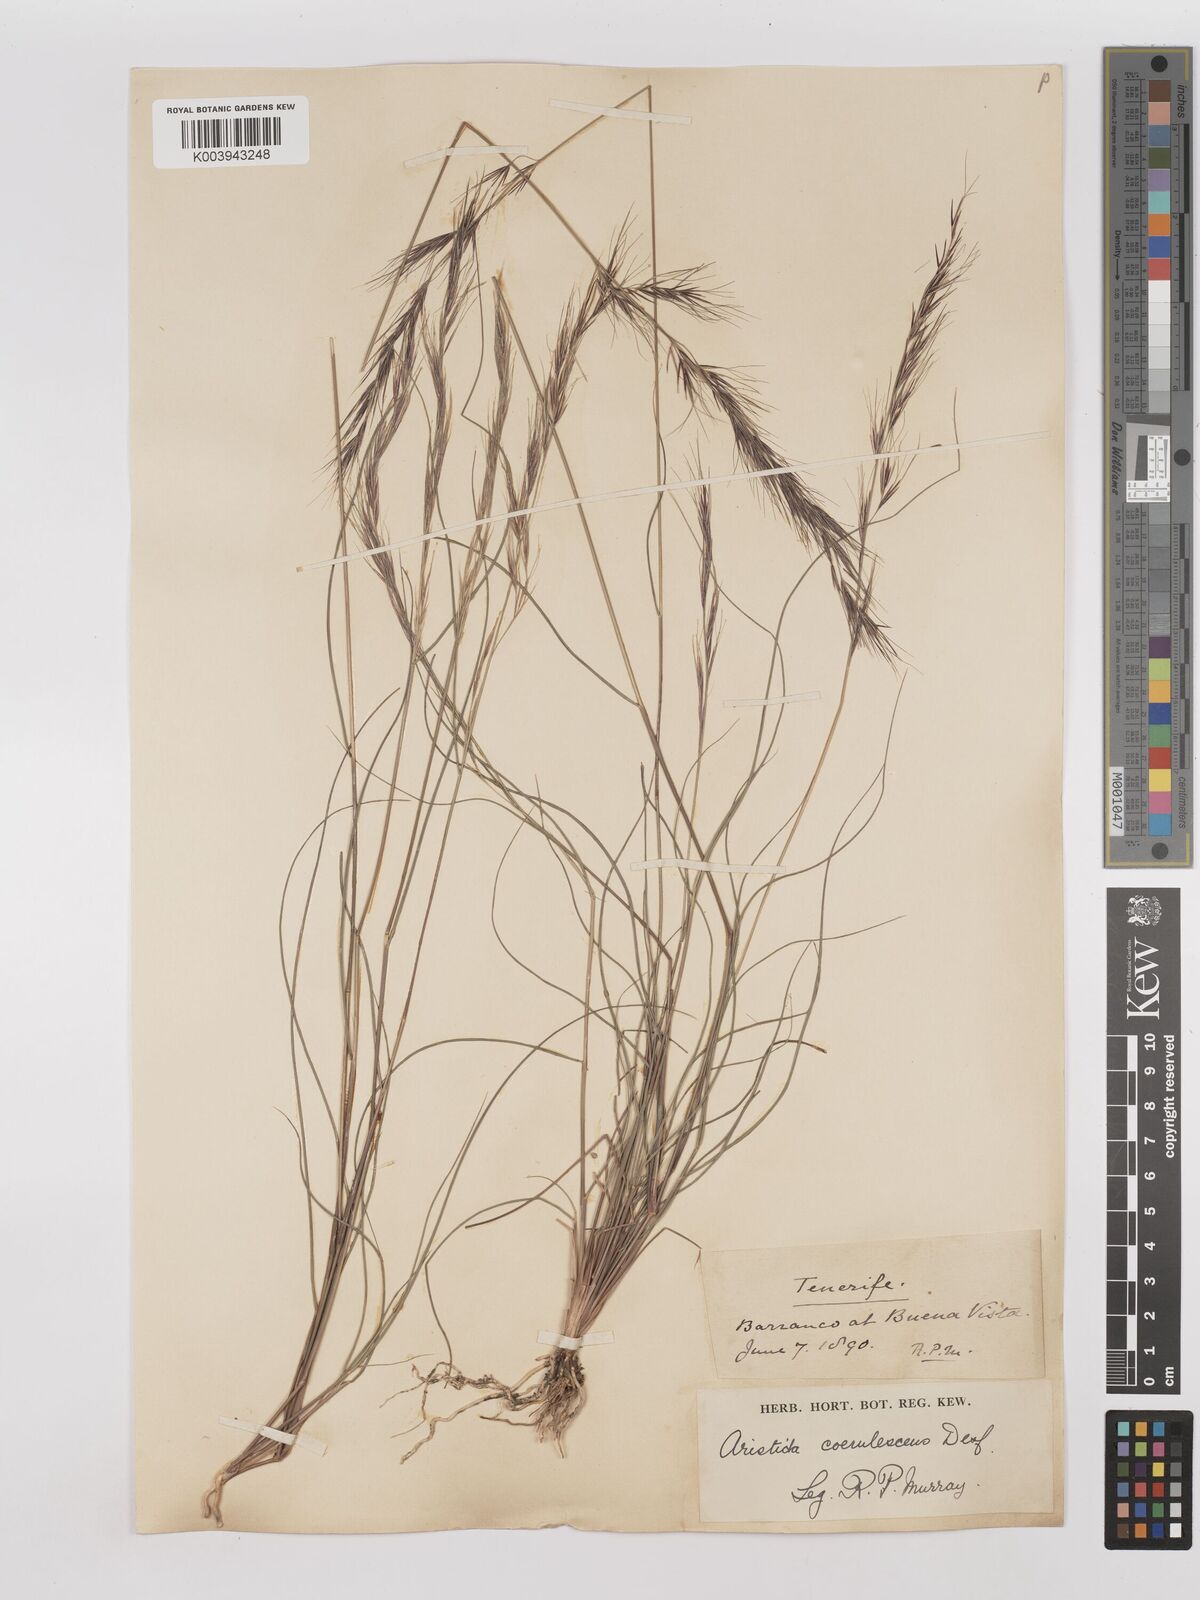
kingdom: Plantae
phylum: Tracheophyta
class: Liliopsida
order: Poales
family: Poaceae
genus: Aristida
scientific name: Aristida adscensionis
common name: Sixweeks threeawn
